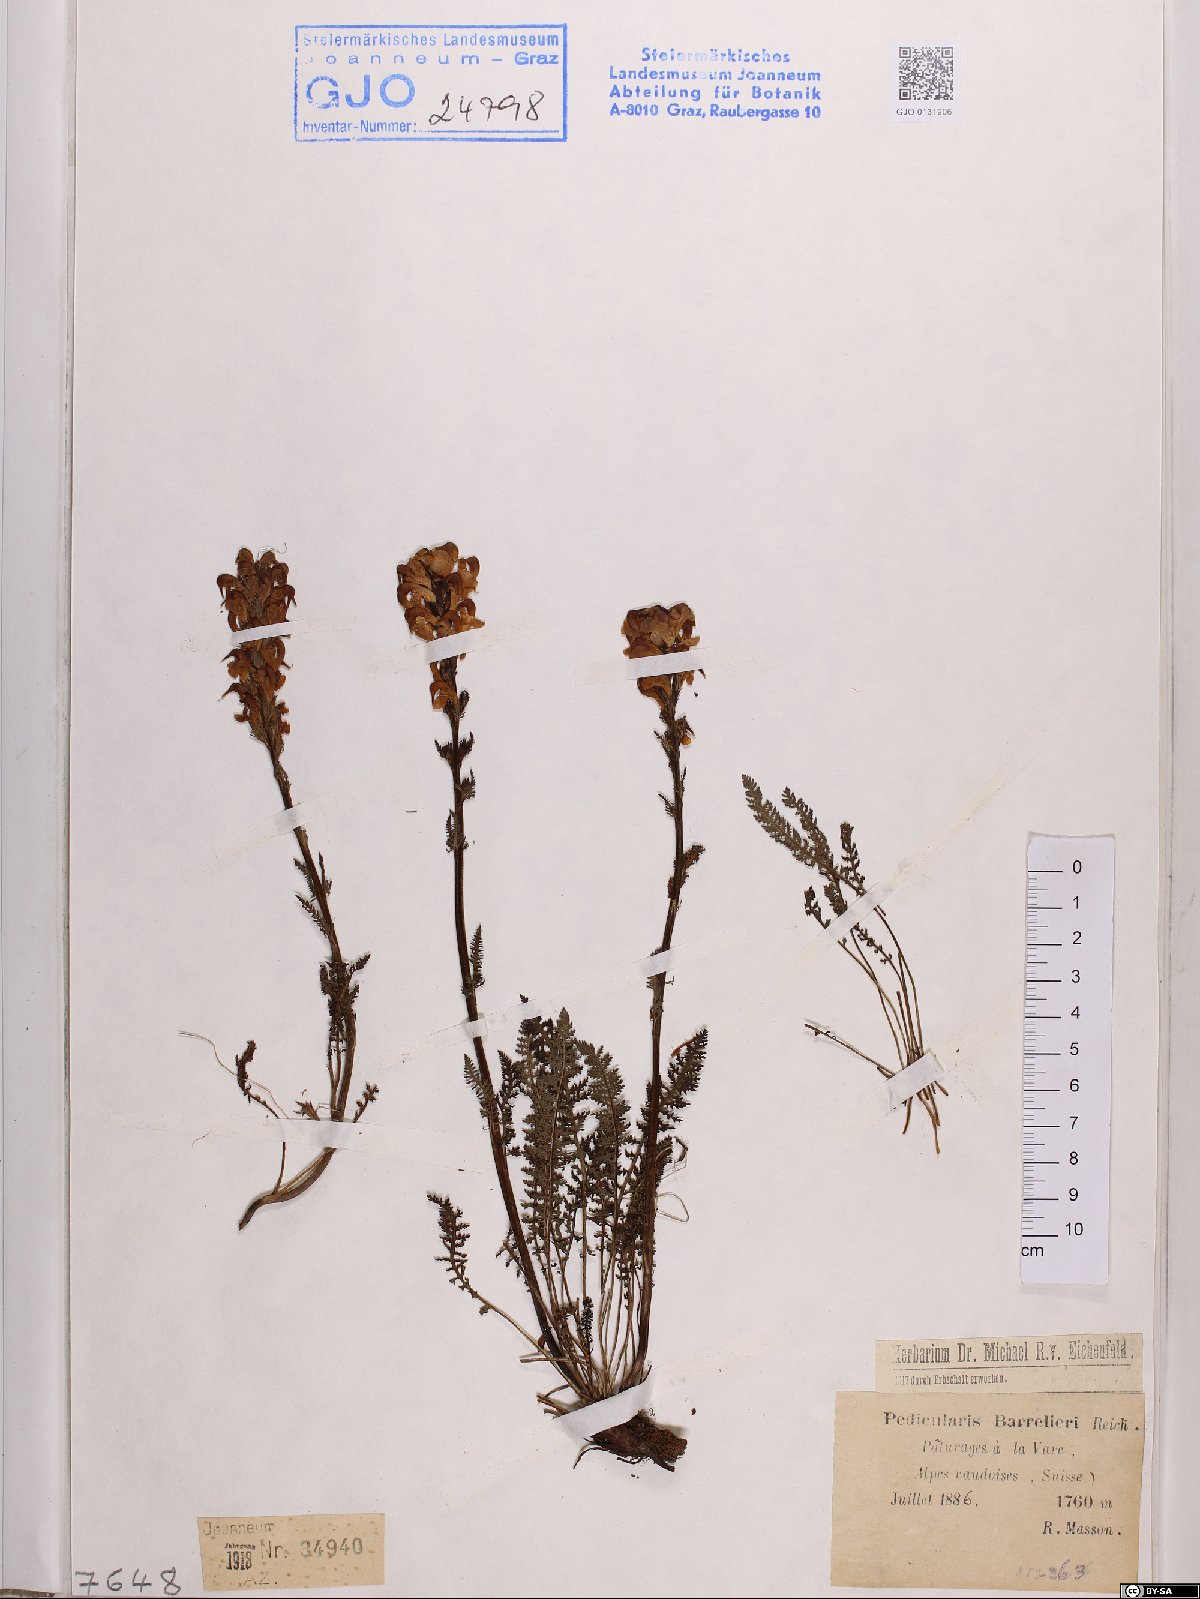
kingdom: Plantae
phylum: Tracheophyta
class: Magnoliopsida
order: Lamiales
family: Orobanchaceae
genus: Pedicularis
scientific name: Pedicularis ascendens
